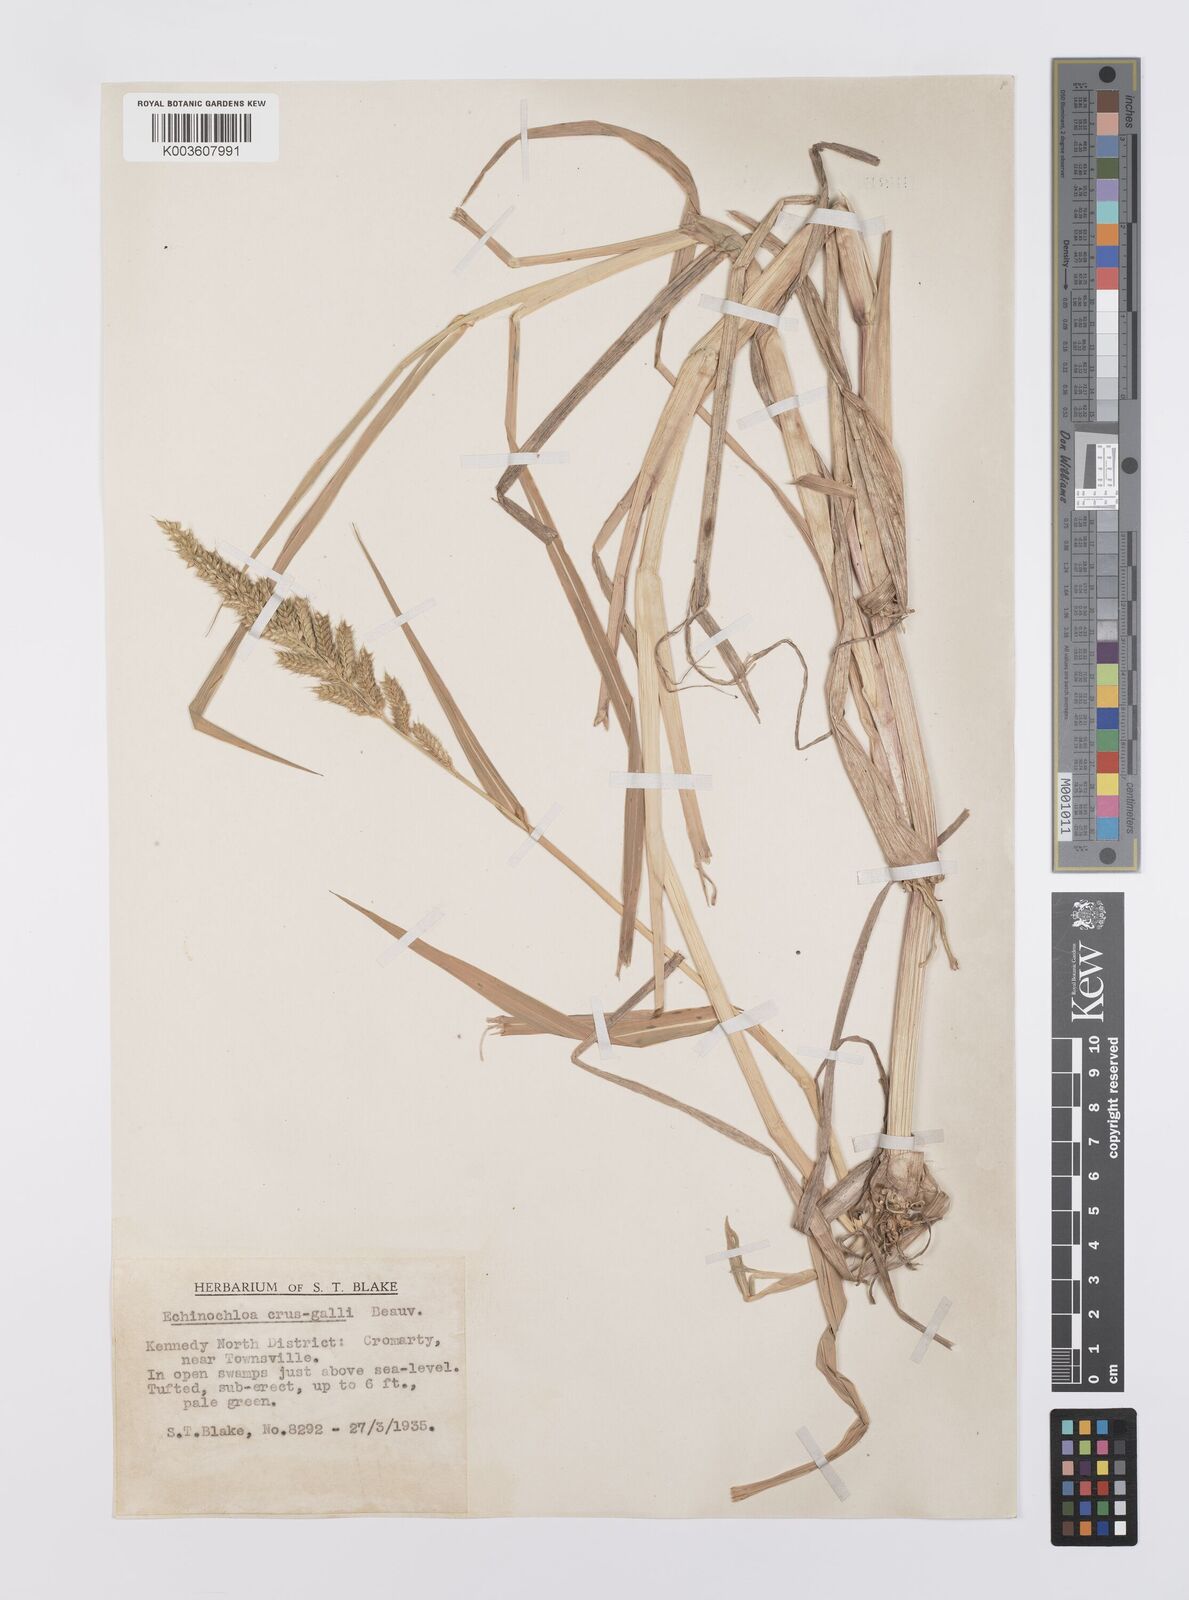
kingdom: Plantae
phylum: Tracheophyta
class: Liliopsida
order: Poales
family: Poaceae
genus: Echinochloa
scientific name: Echinochloa crus-galli
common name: Cockspur
